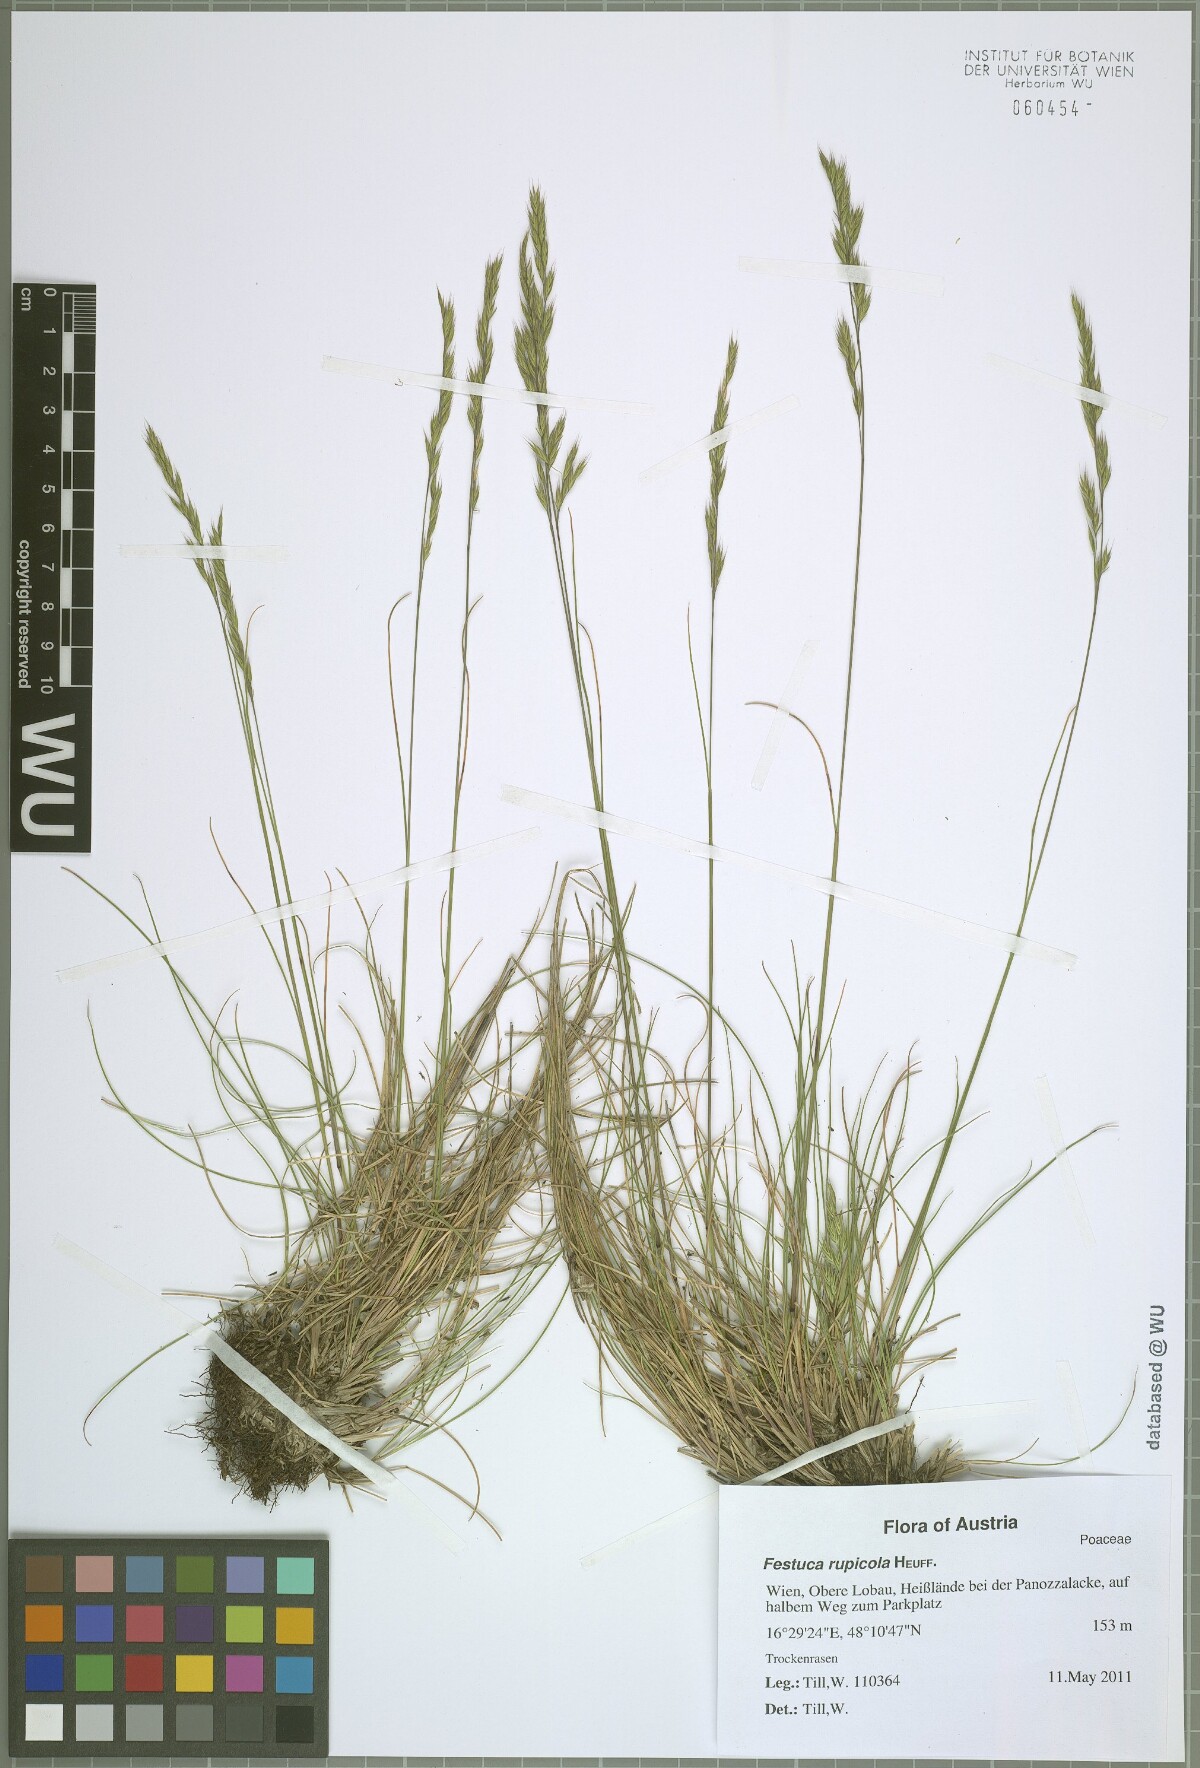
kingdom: Plantae
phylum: Tracheophyta
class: Liliopsida
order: Poales
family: Poaceae
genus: Festuca
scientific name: Festuca rupicola
